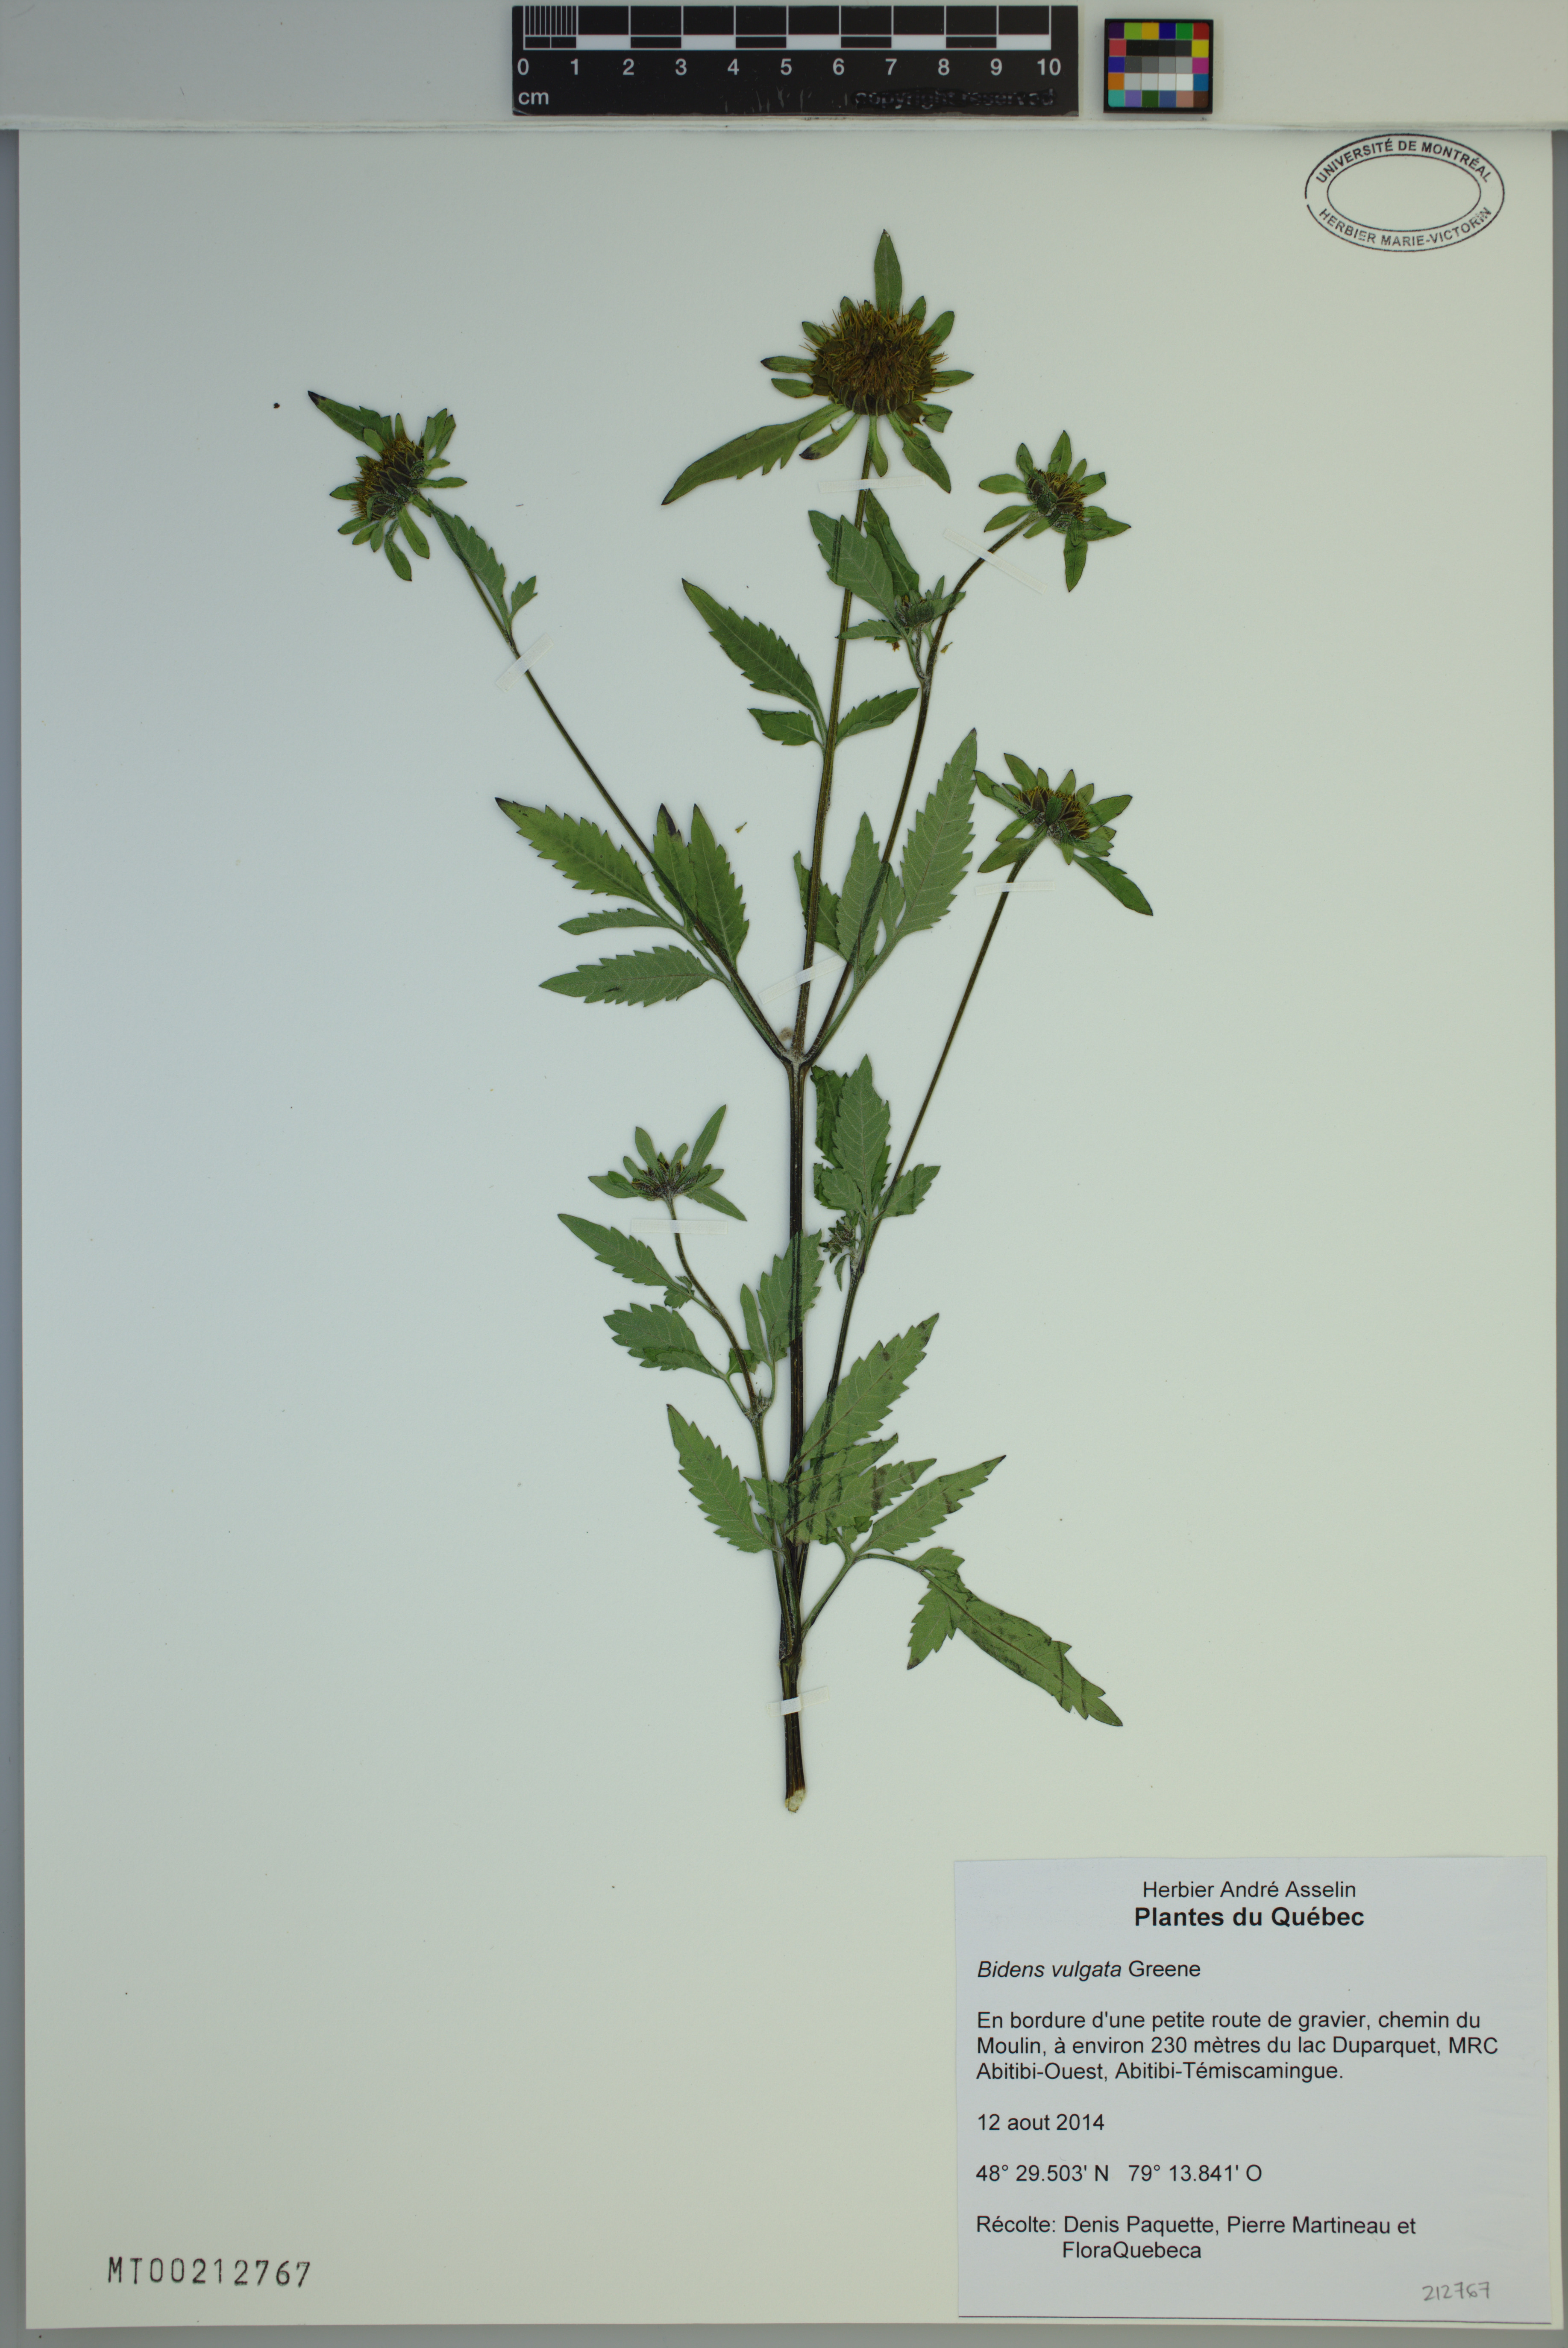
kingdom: Plantae
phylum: Tracheophyta
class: Magnoliopsida
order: Asterales
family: Asteraceae
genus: Bidens
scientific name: Bidens vulgata
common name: Tall beggarticks
